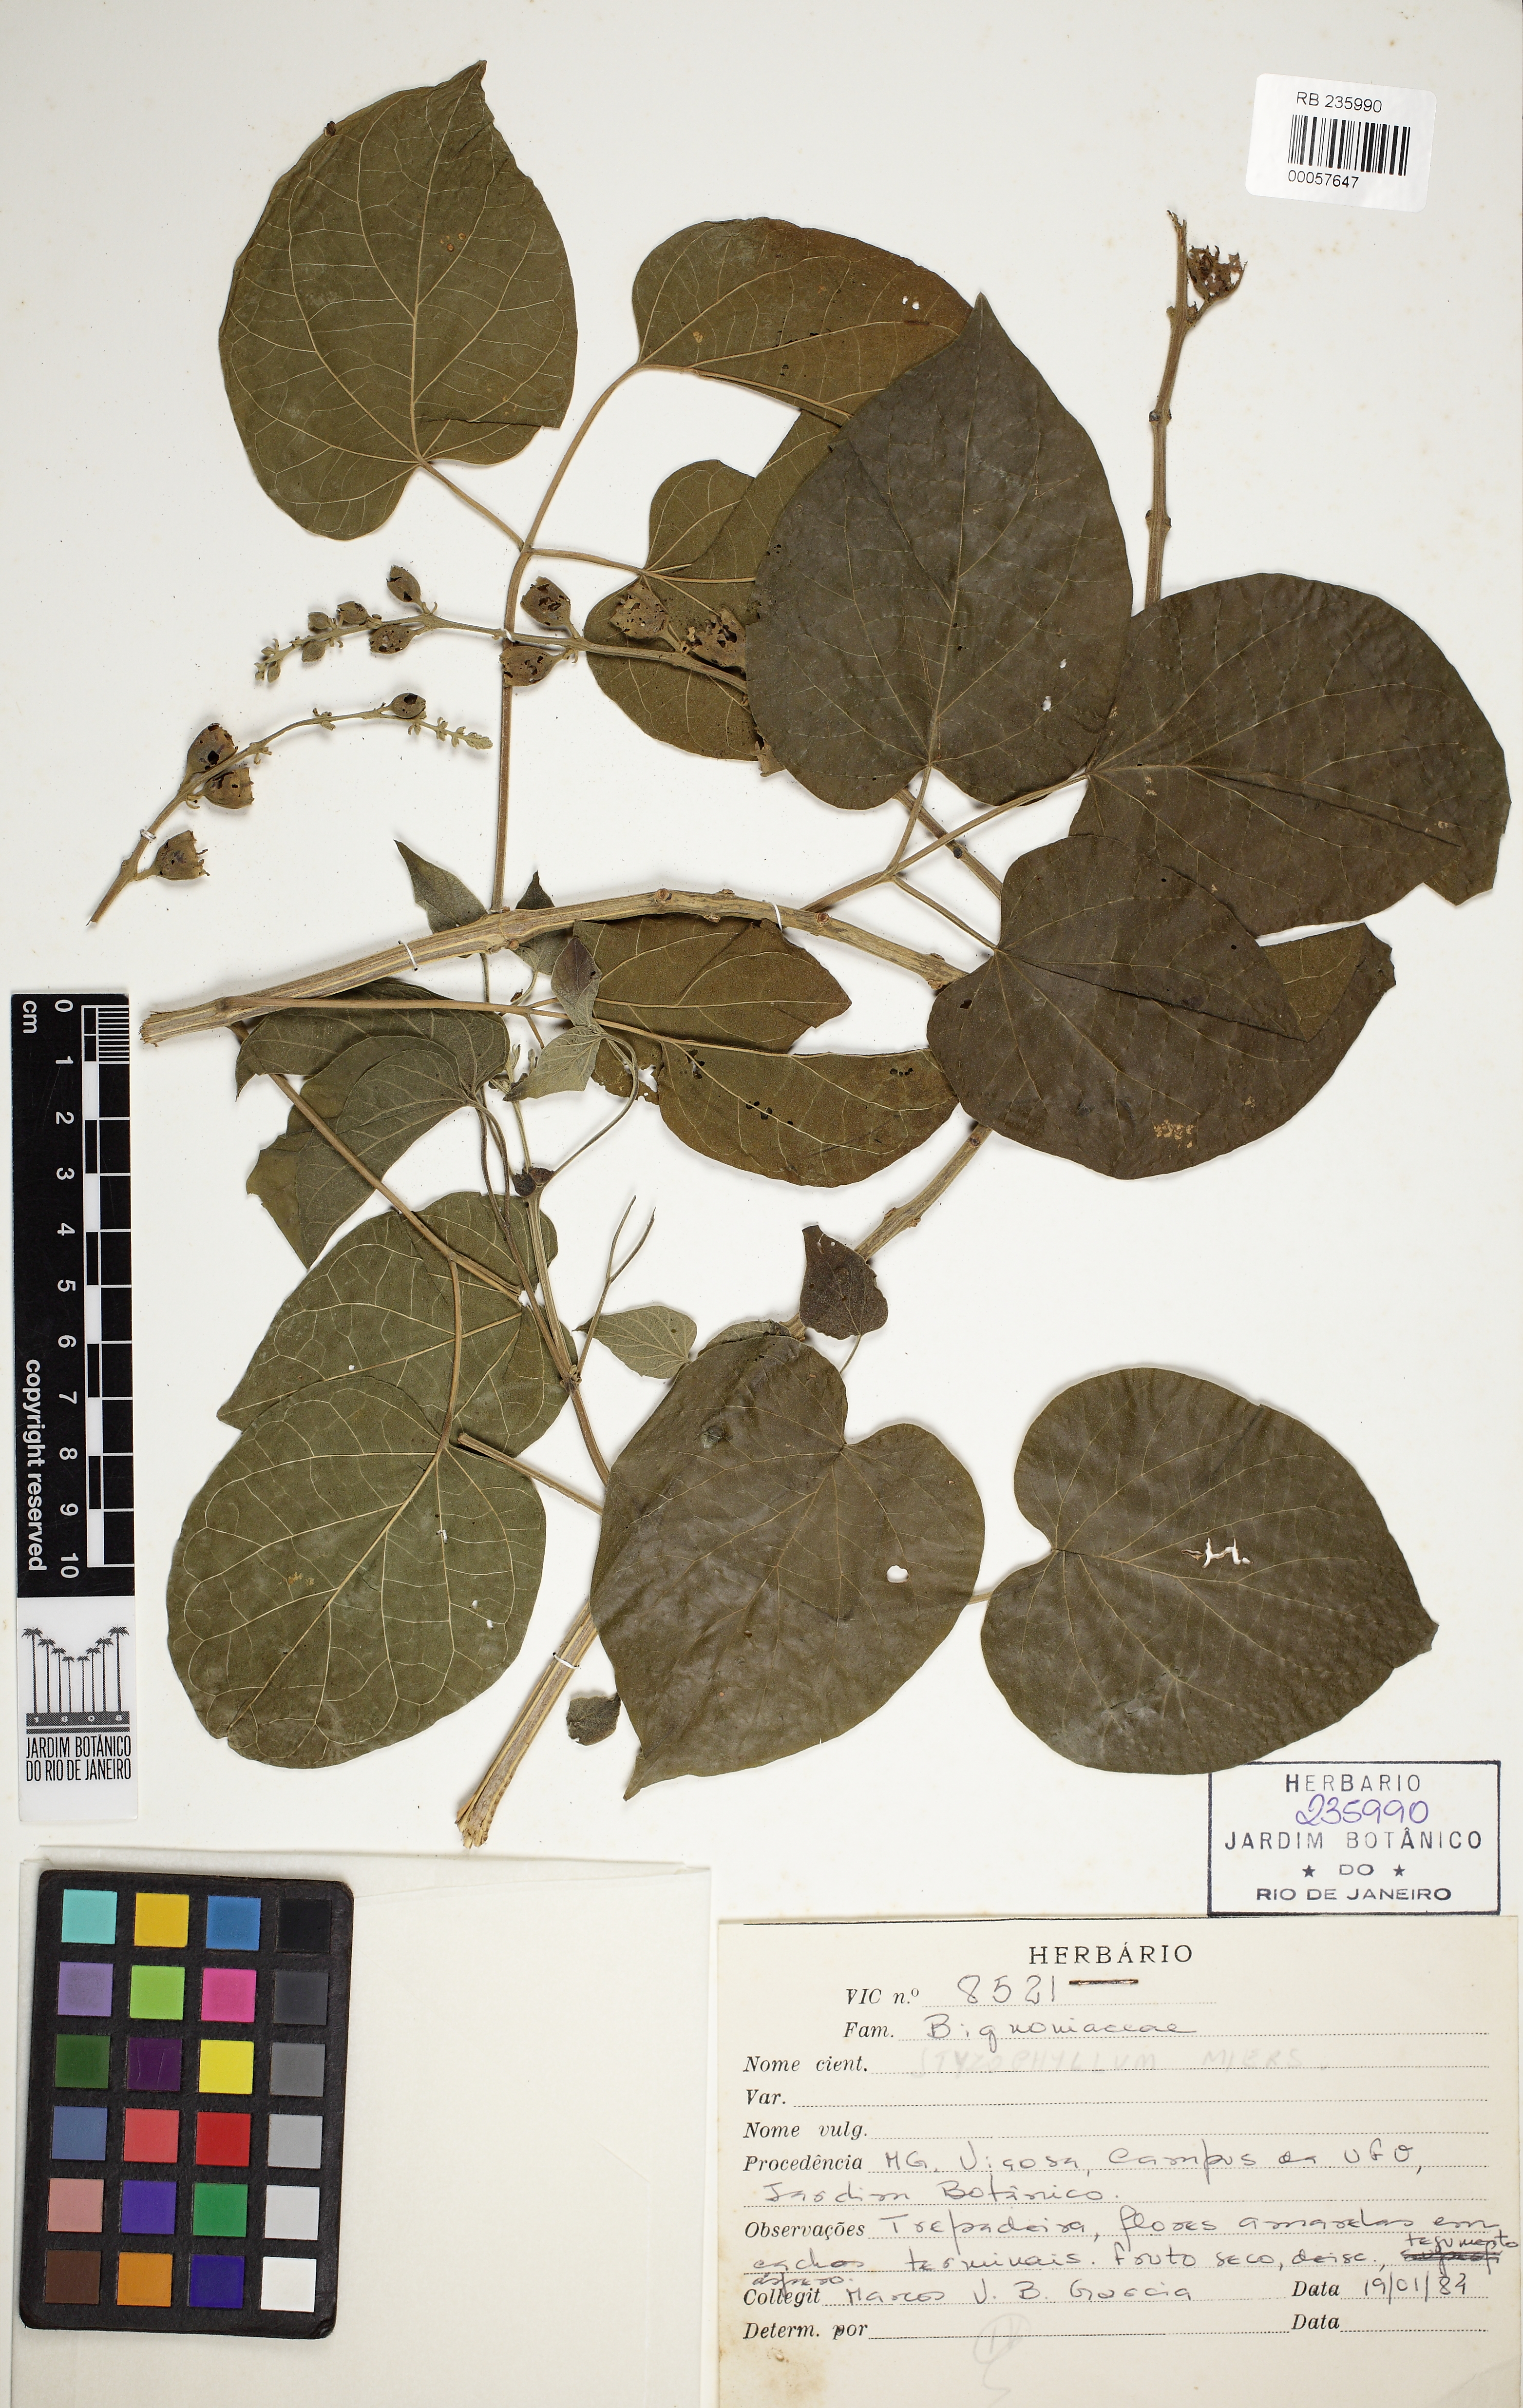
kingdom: Plantae
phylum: Tracheophyta
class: Magnoliopsida
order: Lamiales
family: Bignoniaceae
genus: Stizophyllum
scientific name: Stizophyllum
